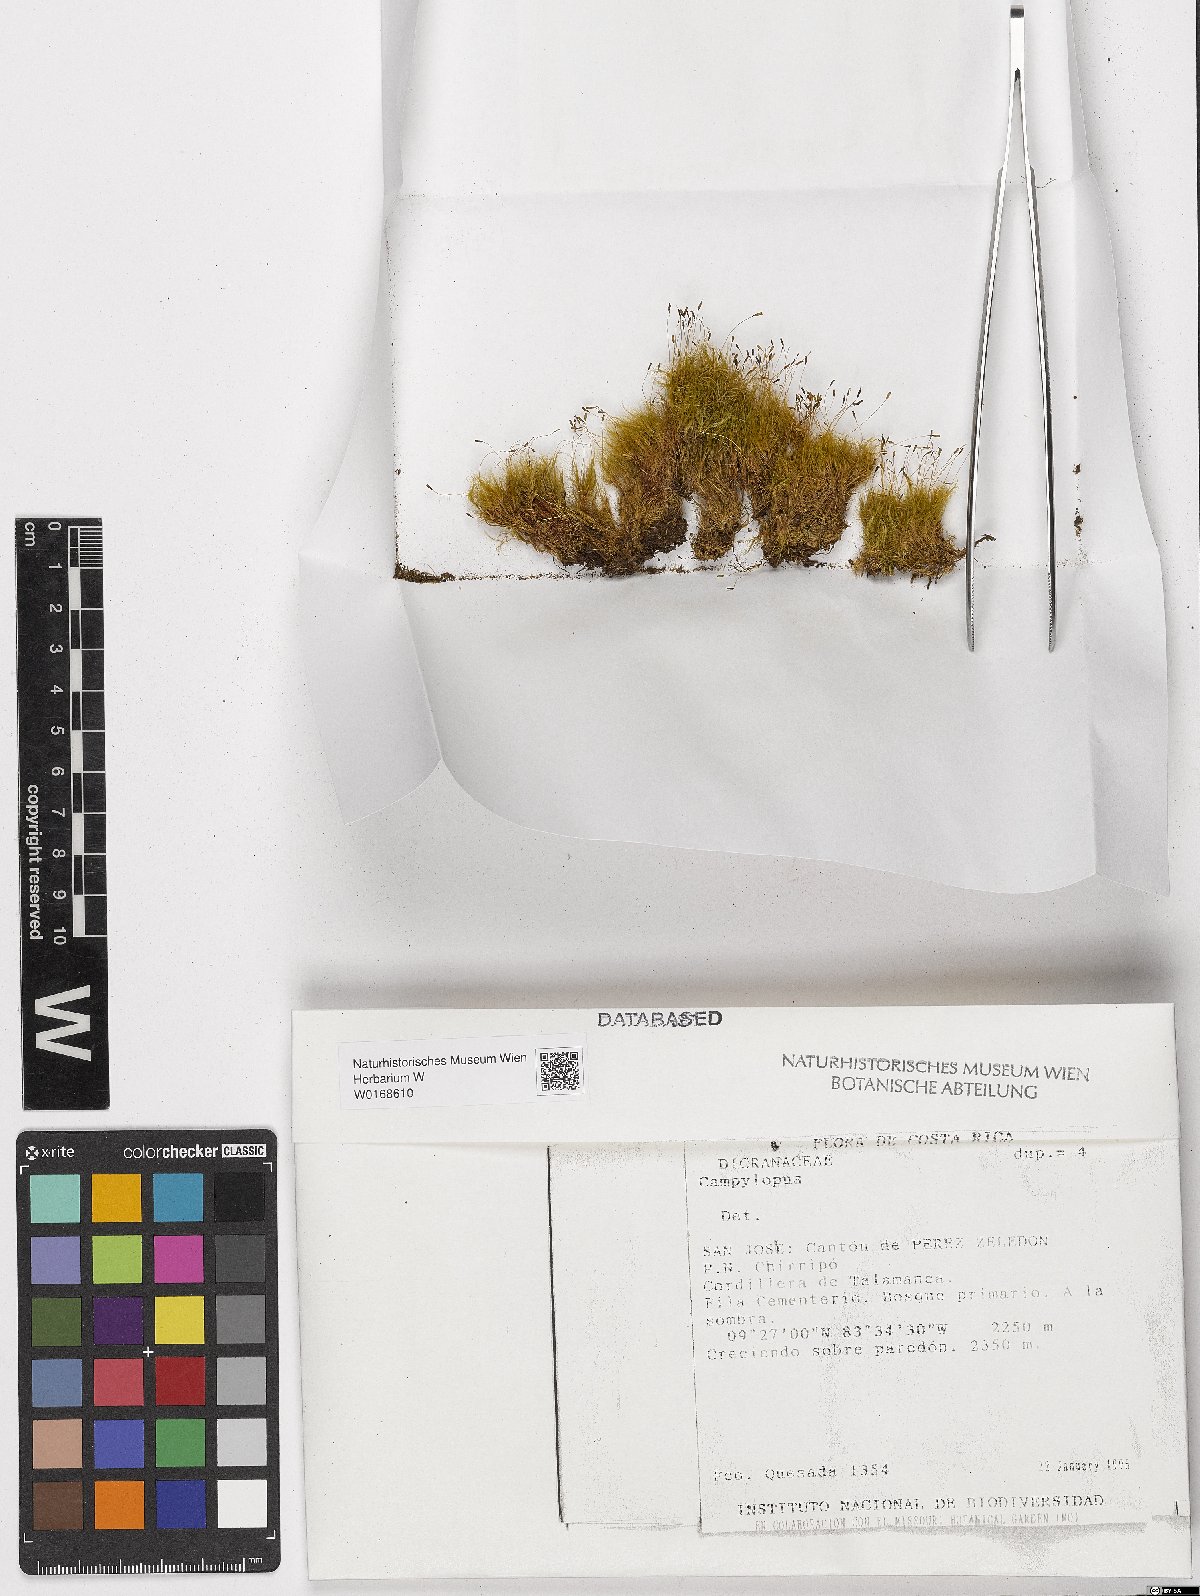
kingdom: Plantae
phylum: Bryophyta
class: Bryopsida
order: Dicranales
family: Leucobryaceae
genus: Campylopus
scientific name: Campylopus
